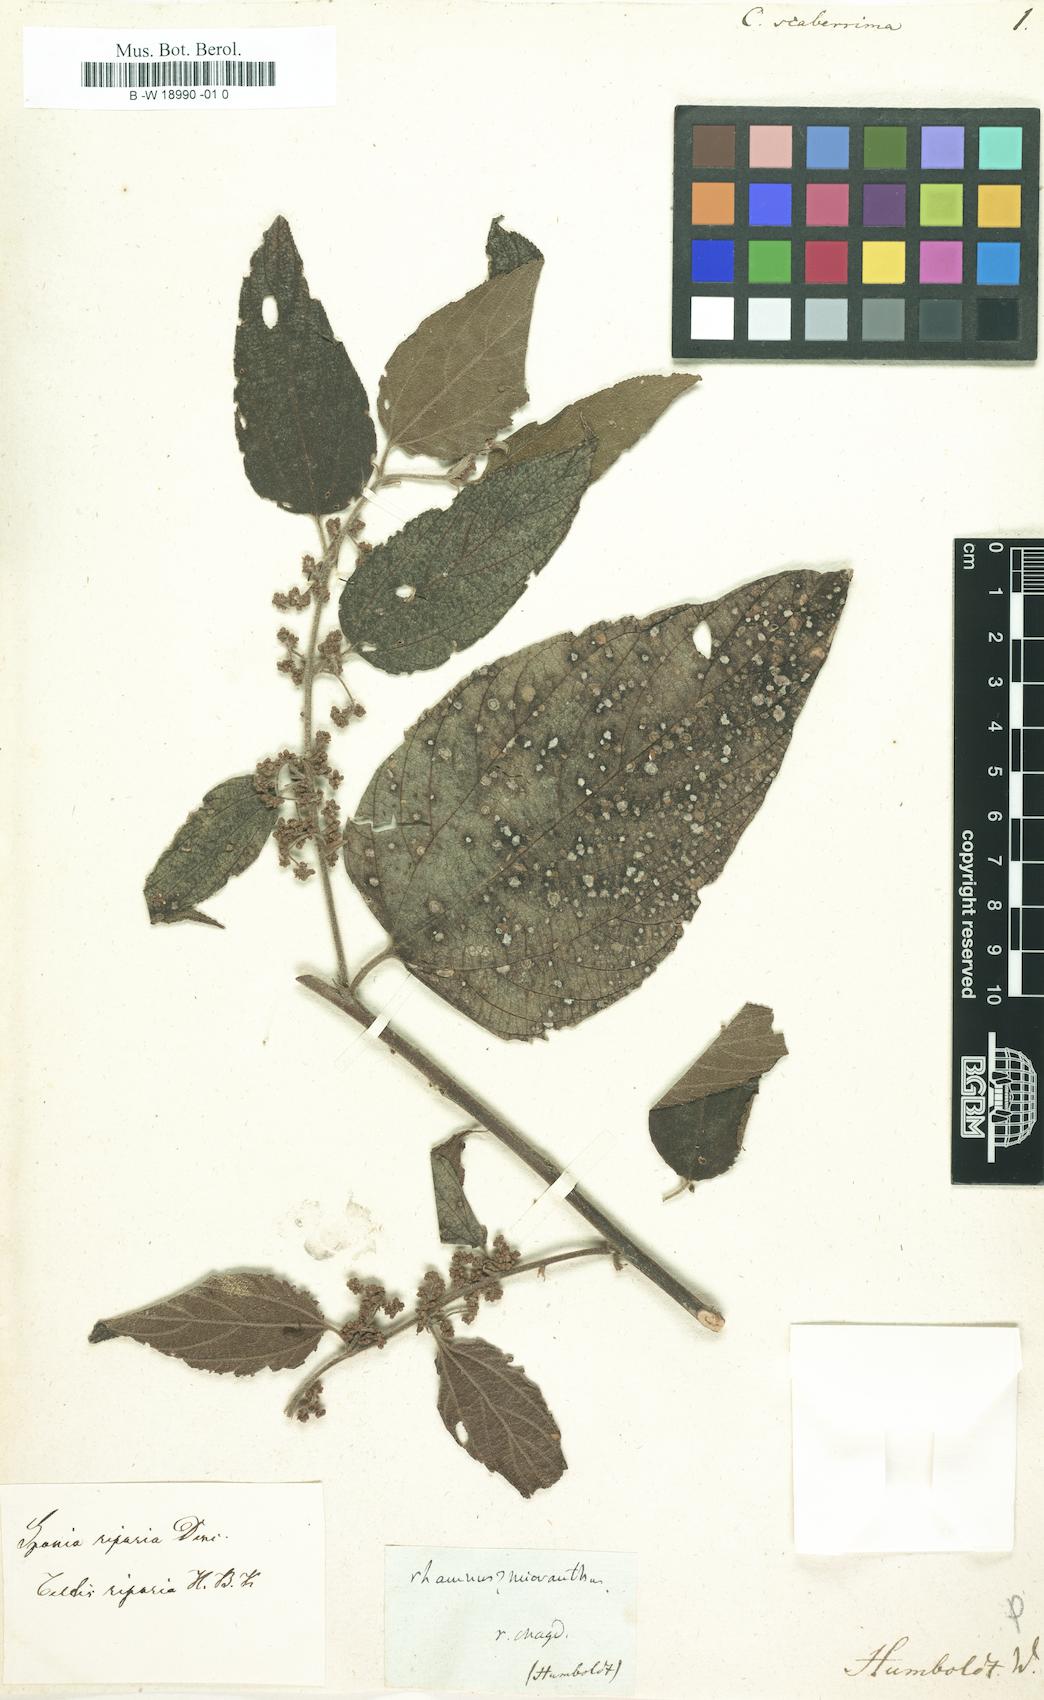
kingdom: Plantae
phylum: Tracheophyta
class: Magnoliopsida
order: Rosales
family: Cannabaceae
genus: Celtis
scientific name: Celtis
